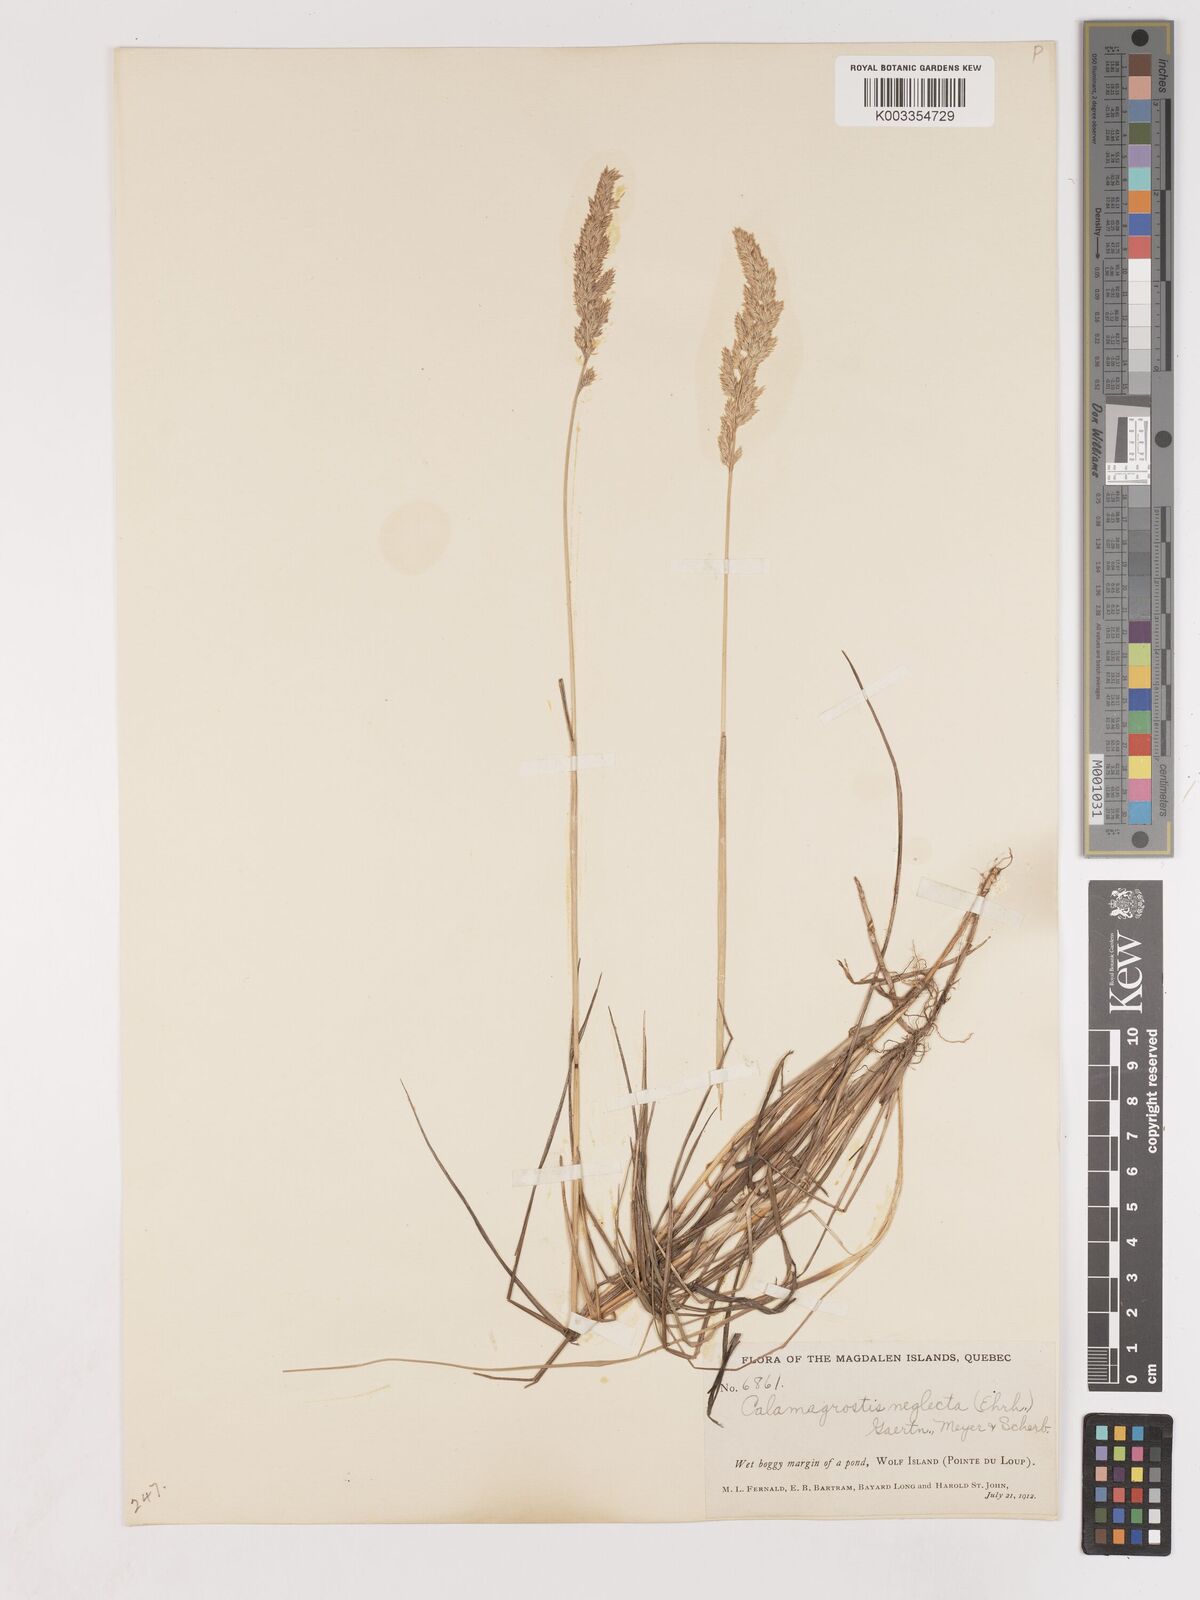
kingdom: Plantae
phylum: Tracheophyta
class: Liliopsida
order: Poales
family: Poaceae
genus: Cinnagrostis
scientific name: Cinnagrostis recta
